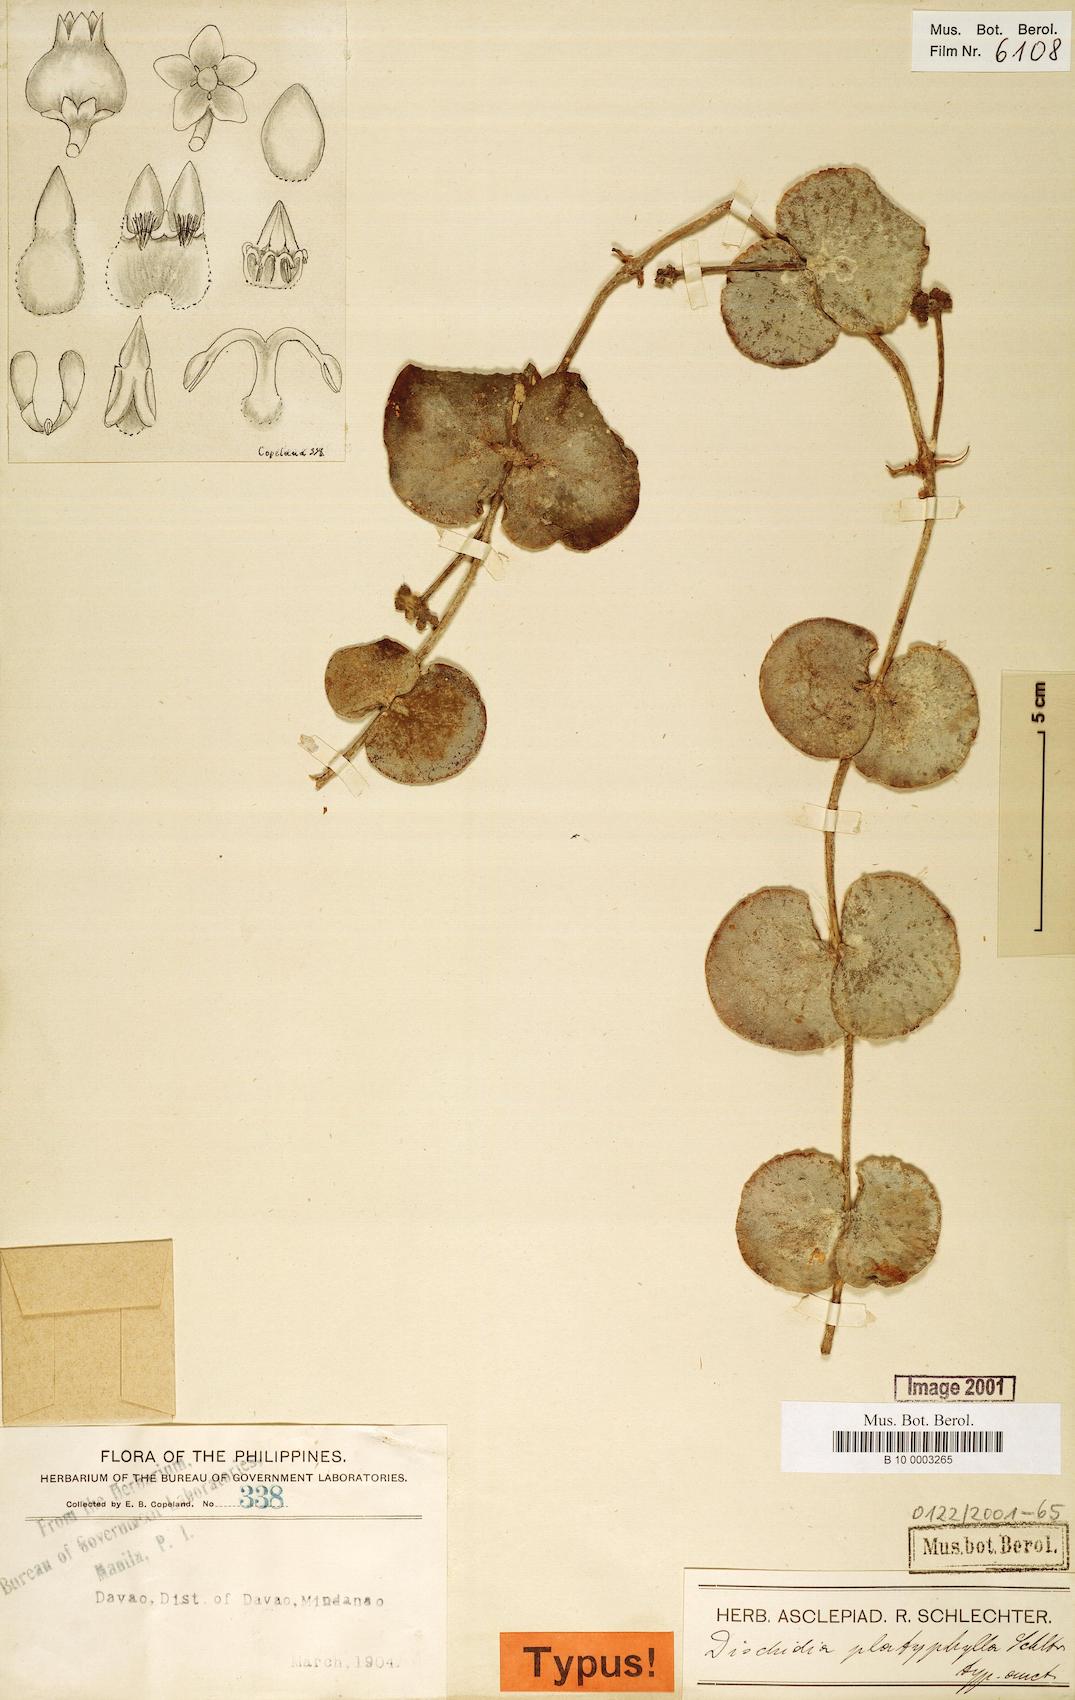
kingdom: Plantae
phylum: Tracheophyta
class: Magnoliopsida
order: Gentianales
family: Apocynaceae
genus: Dischidia
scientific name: Dischidia platyphylla
